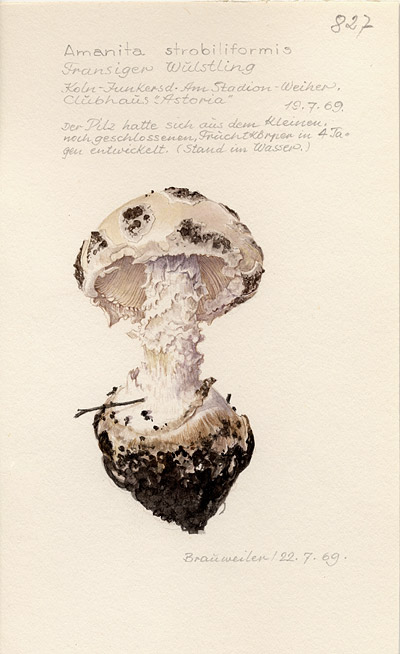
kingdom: Fungi
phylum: Basidiomycota
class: Agaricomycetes
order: Agaricales
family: Amanitaceae
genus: Amanita
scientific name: Amanita
